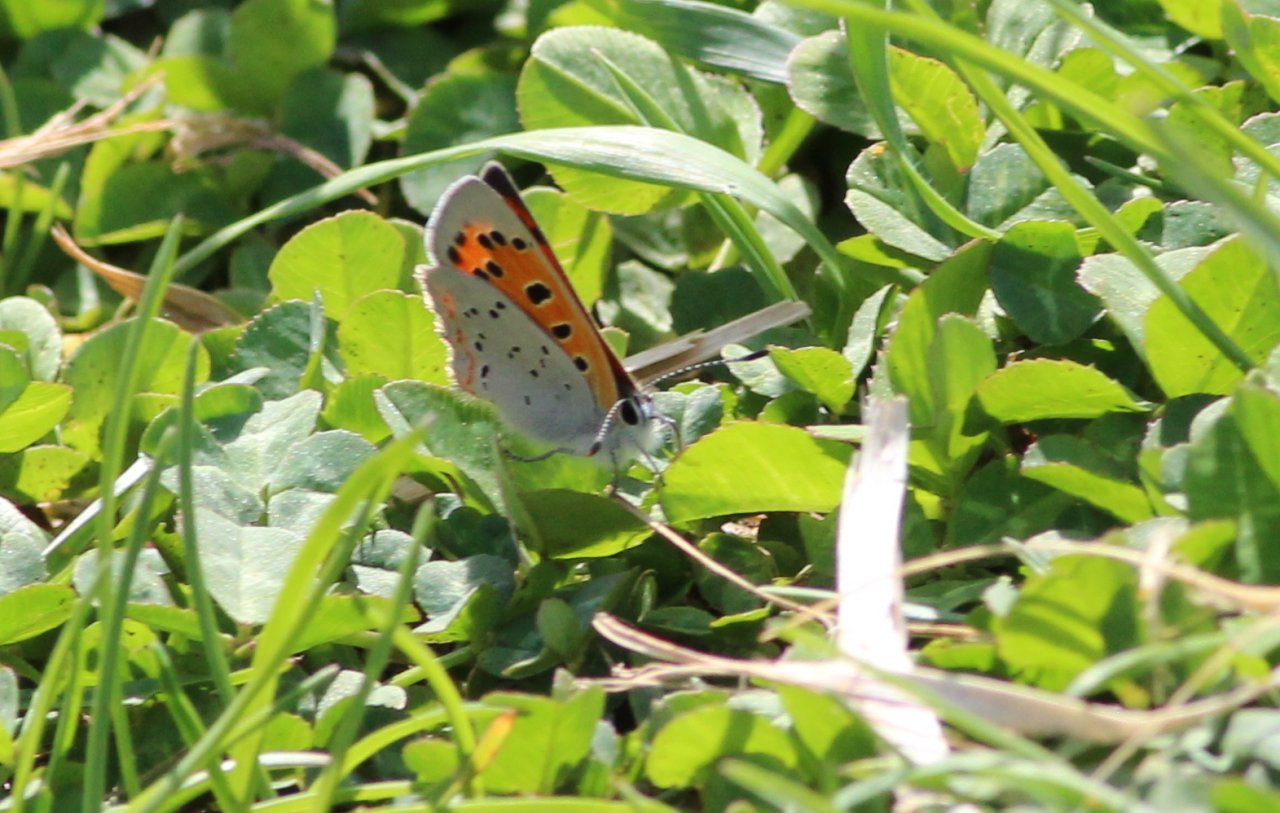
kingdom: Animalia
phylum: Arthropoda
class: Insecta
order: Lepidoptera
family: Lycaenidae
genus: Lycaena
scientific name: Lycaena phlaeas
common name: American Copper
